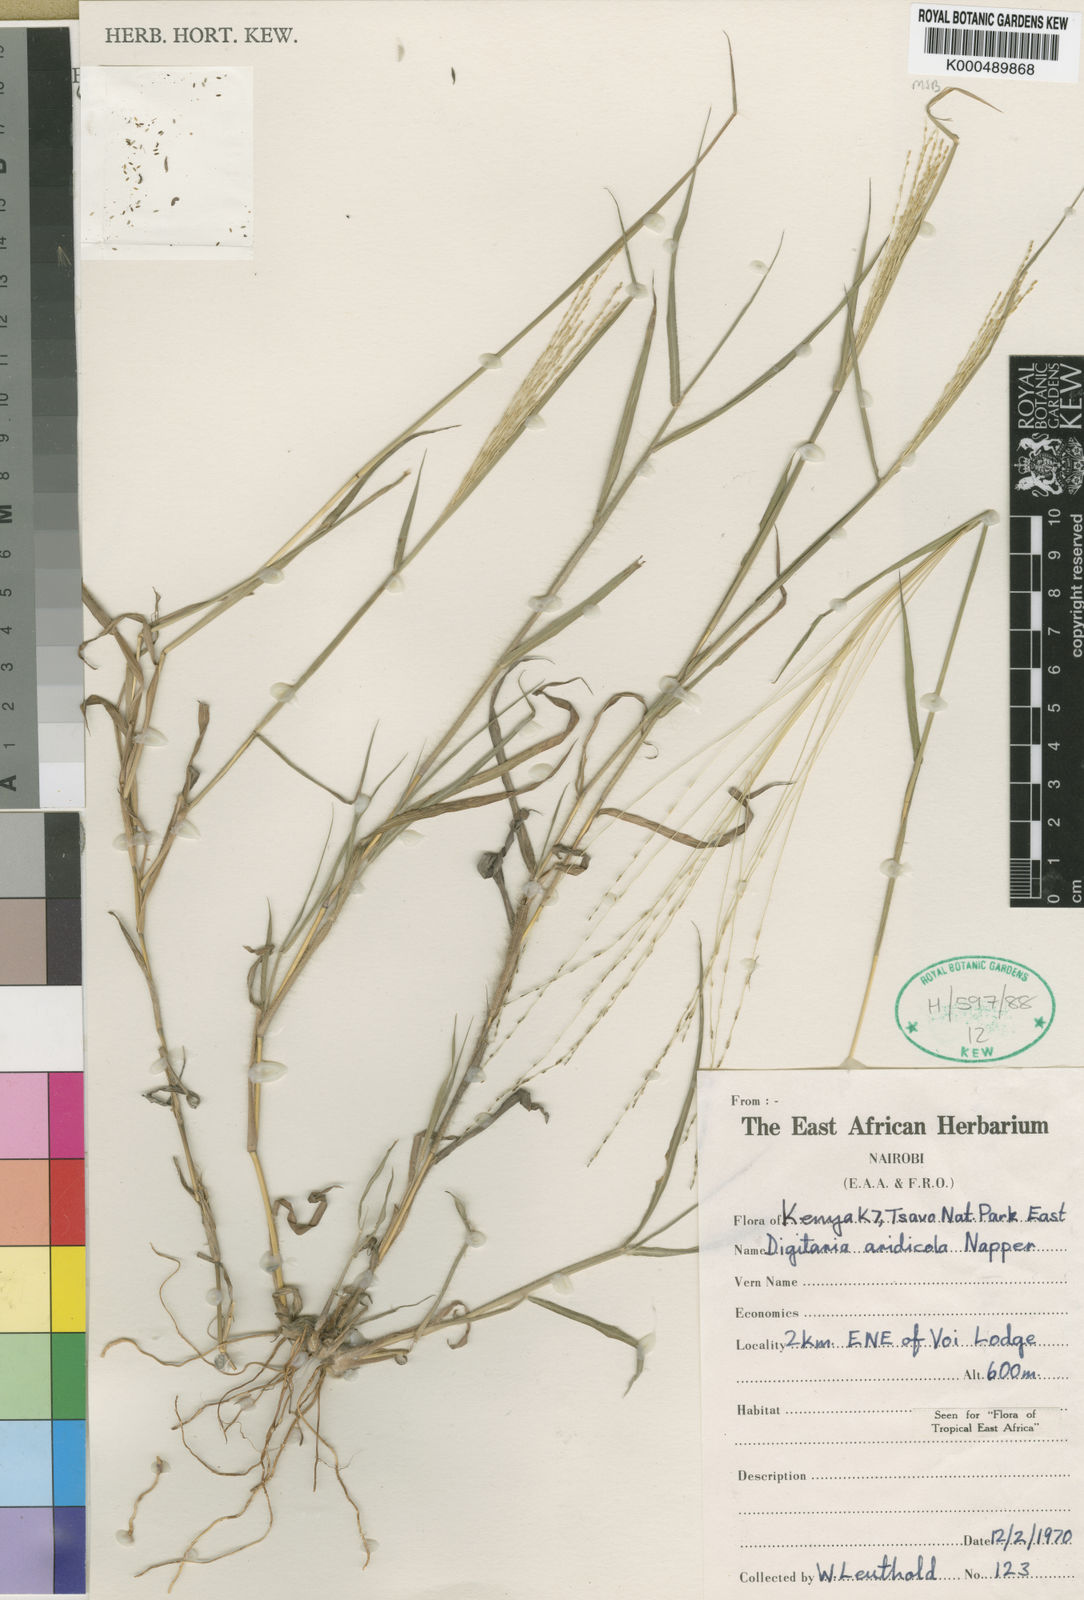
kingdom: Plantae
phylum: Tracheophyta
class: Liliopsida
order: Poales
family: Poaceae
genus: Digitaria
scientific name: Digitaria aridicola
